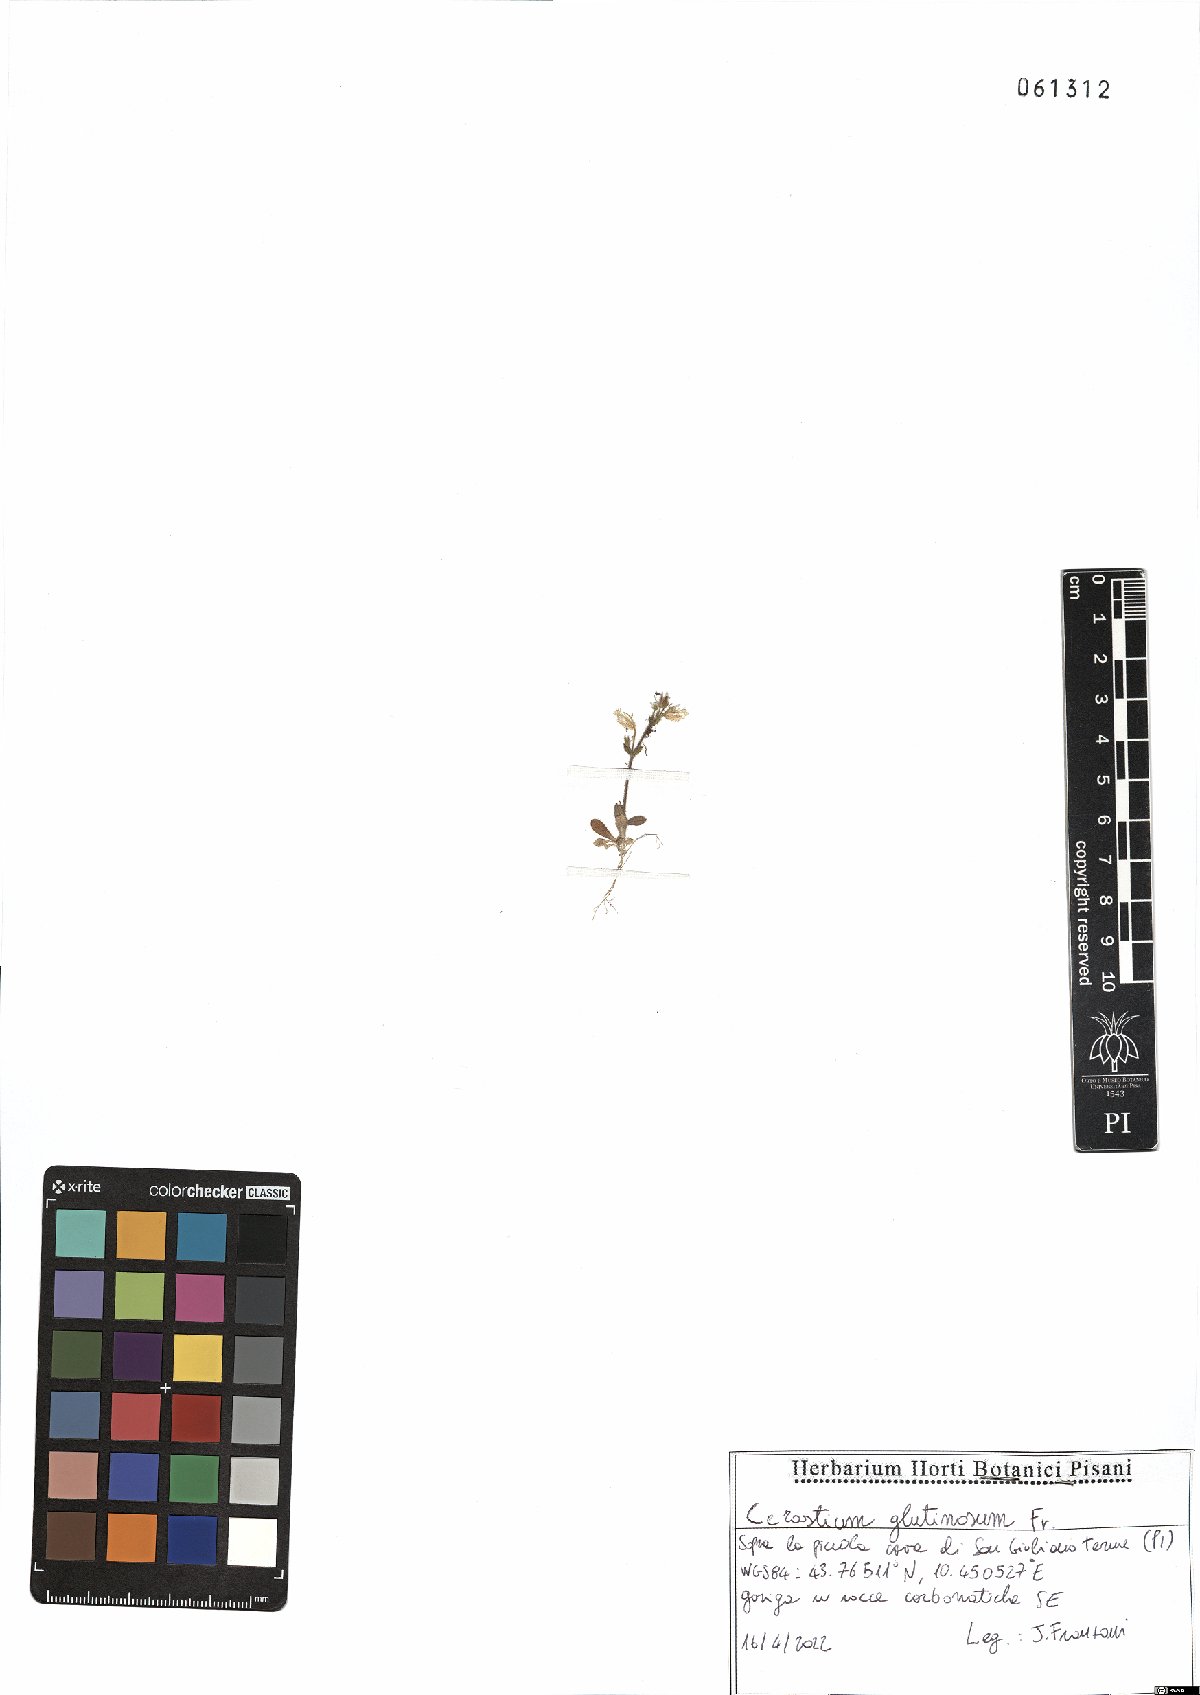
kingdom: Plantae
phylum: Tracheophyta
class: Magnoliopsida
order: Caryophyllales
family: Caryophyllaceae
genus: Cerastium
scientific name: Cerastium glutinosum
